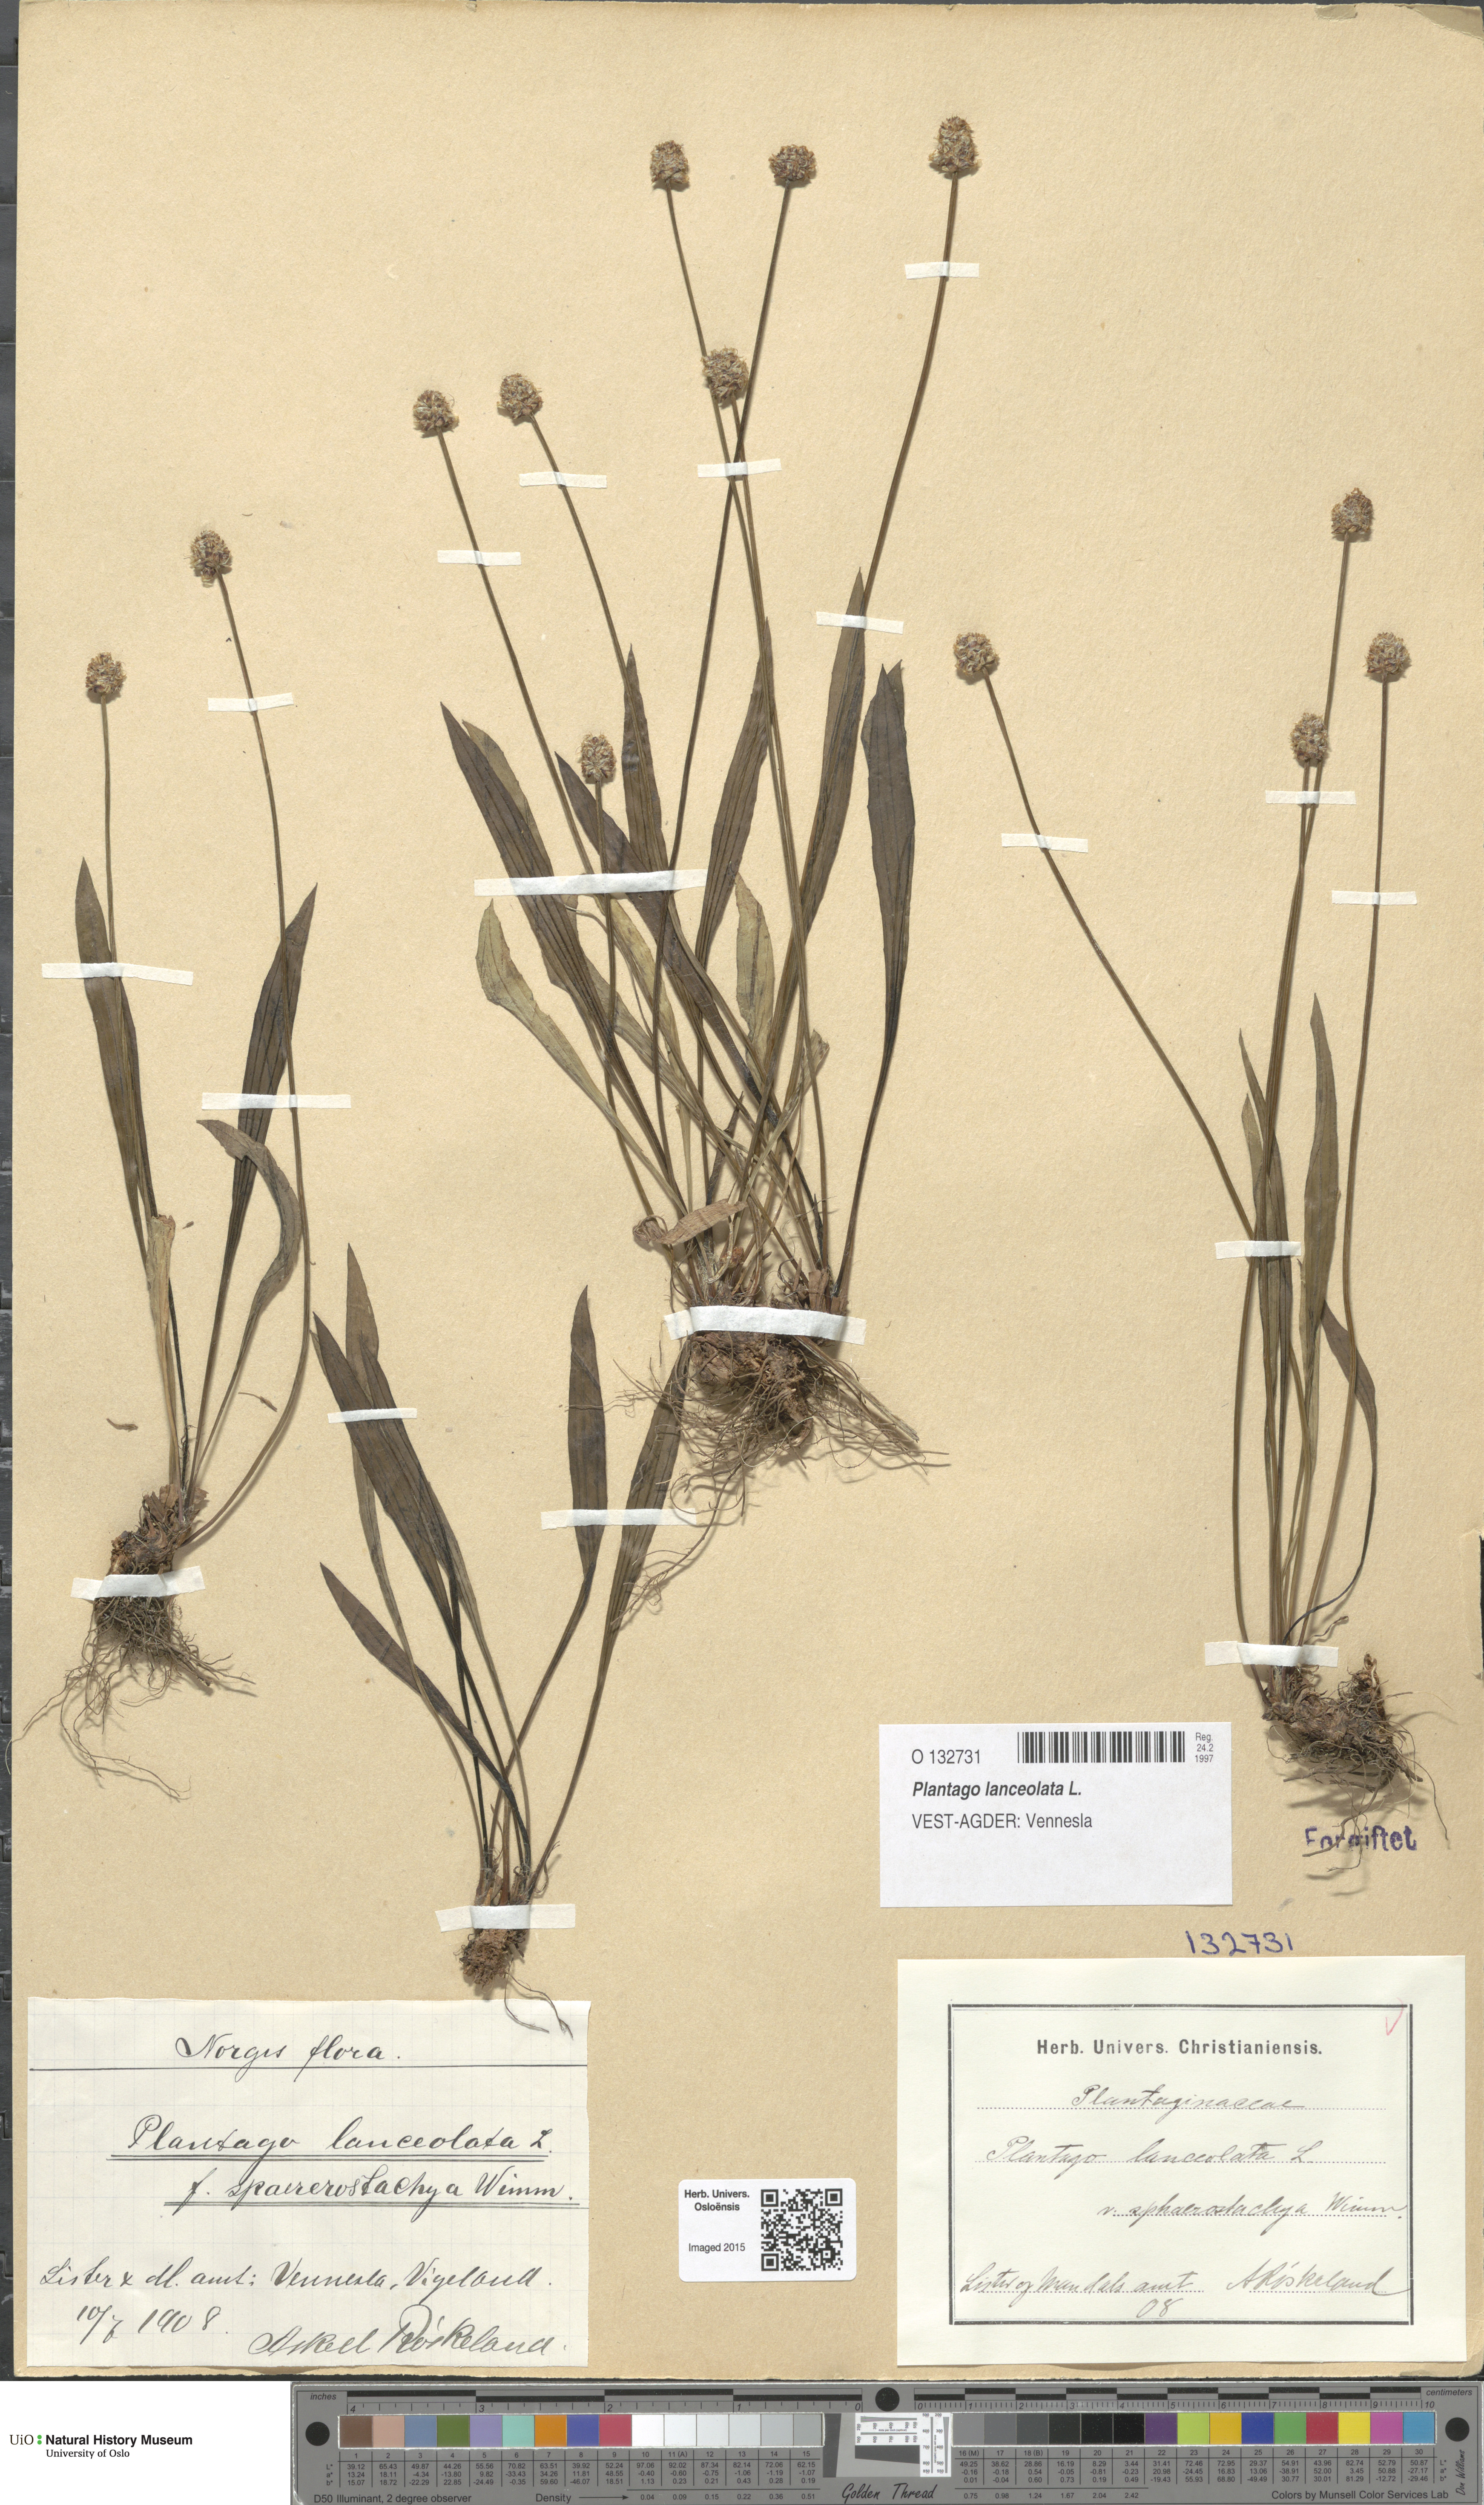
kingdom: Plantae
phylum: Tracheophyta
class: Magnoliopsida
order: Lamiales
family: Plantaginaceae
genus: Plantago
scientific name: Plantago lanceolata
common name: Ribwort plantain
